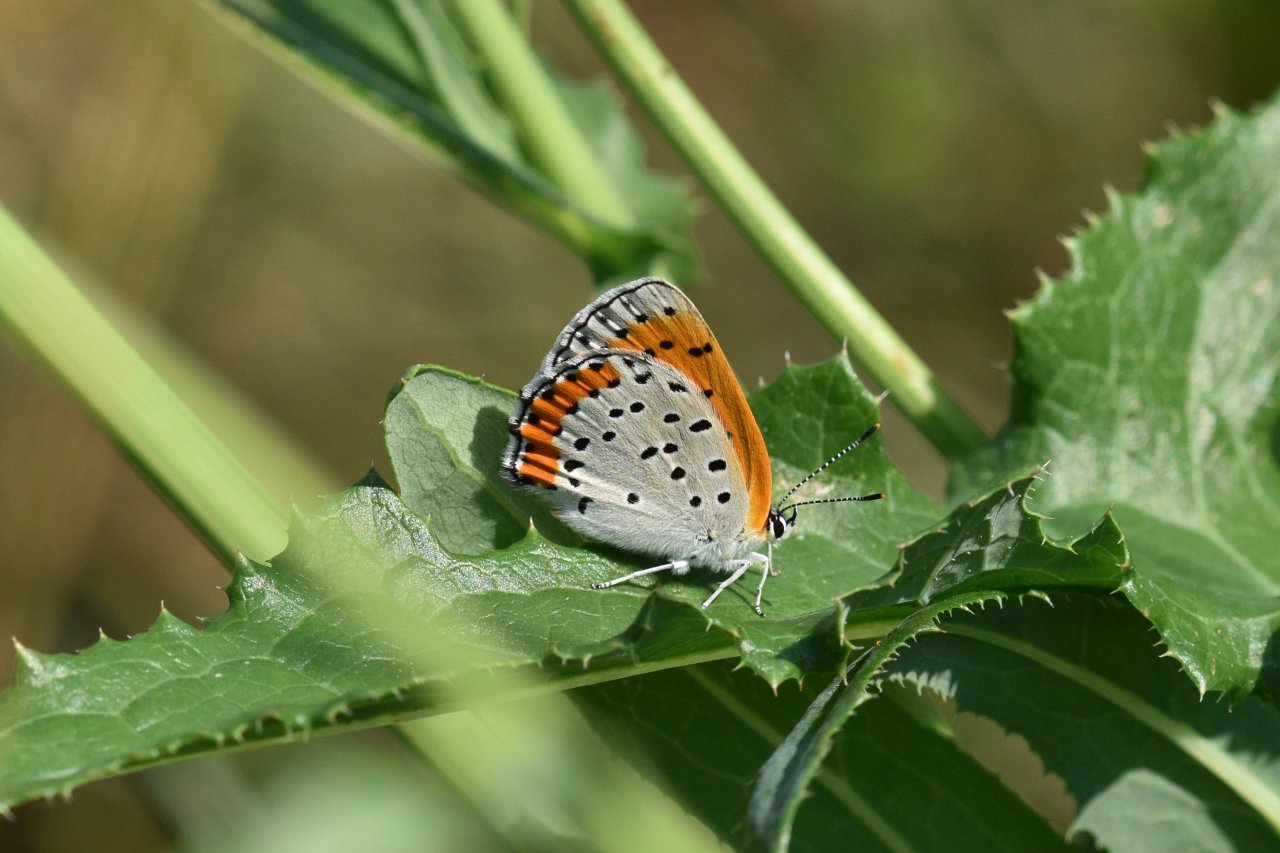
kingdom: Animalia
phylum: Arthropoda
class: Insecta
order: Lepidoptera
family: Sesiidae
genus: Sesia
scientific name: Sesia Lycaena hyllus
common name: Bronze Copper
